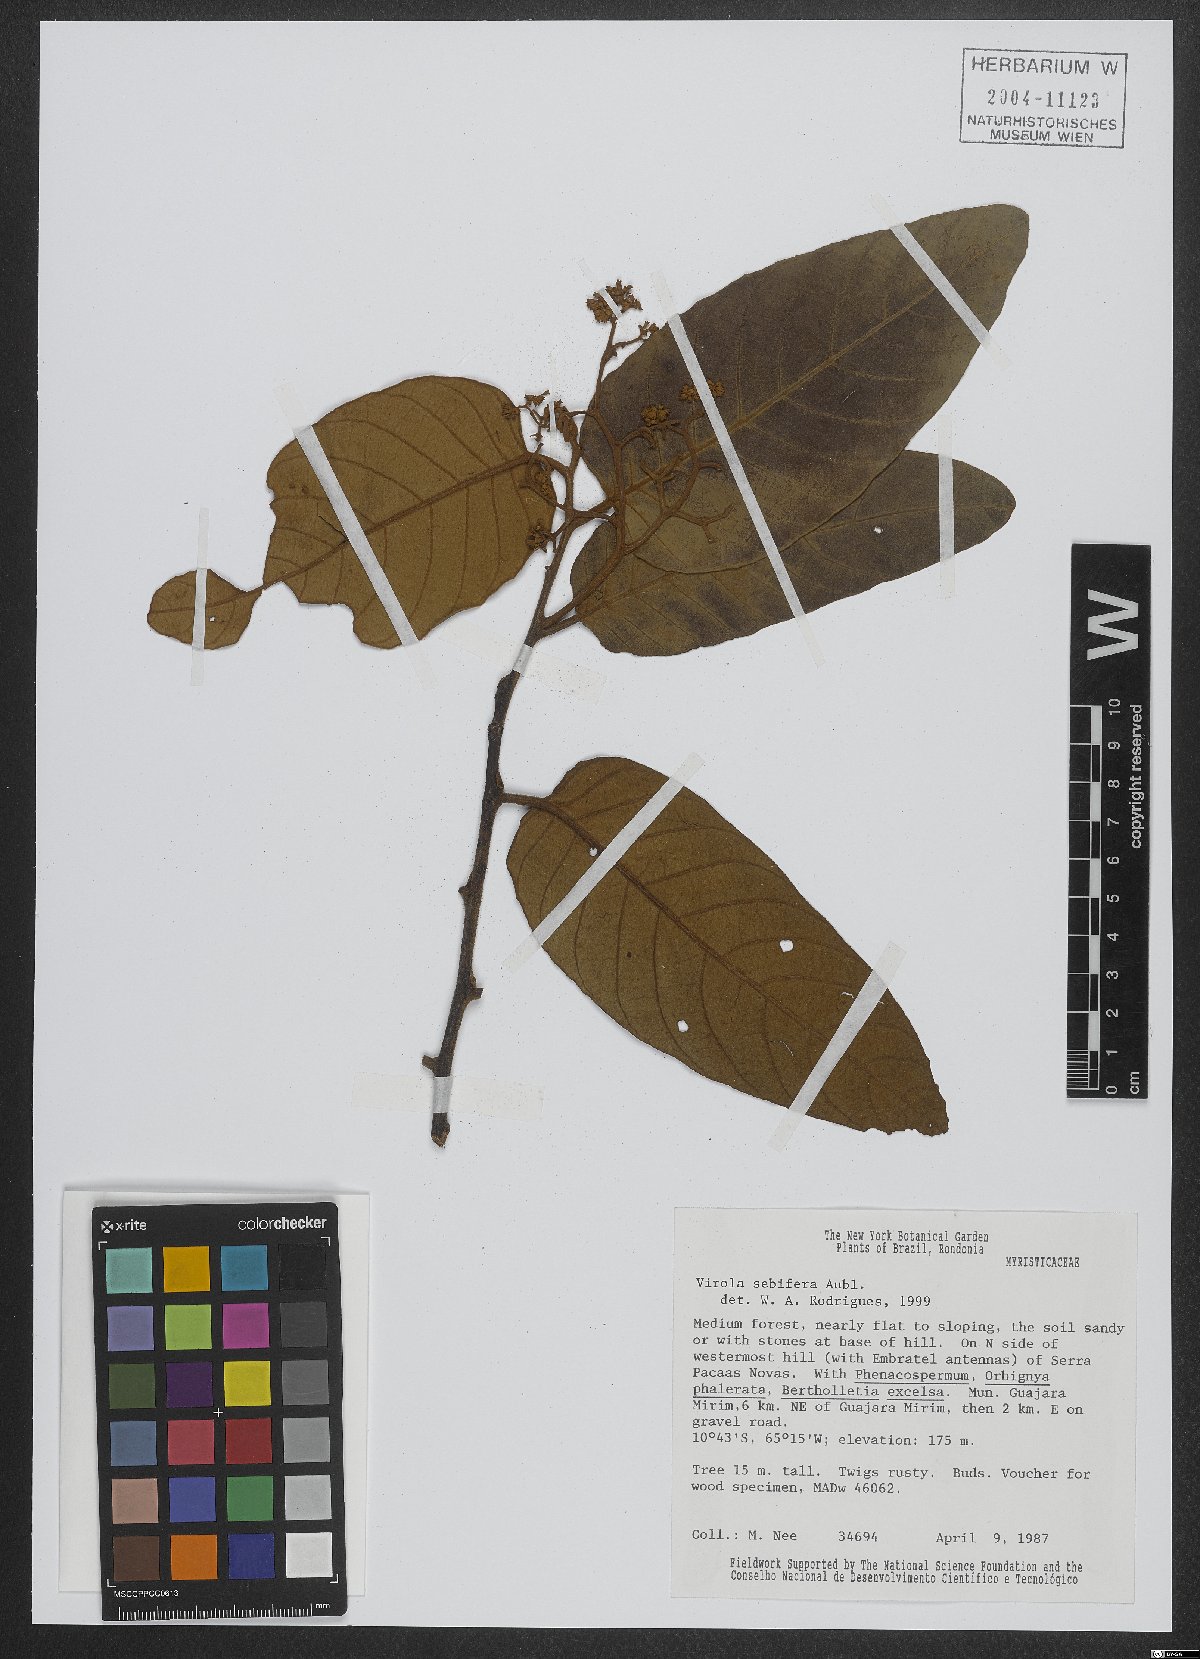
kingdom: Plantae
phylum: Tracheophyta
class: Magnoliopsida
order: Magnoliales
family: Myristicaceae
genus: Virola
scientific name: Virola sebifera
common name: Red ucuuba
